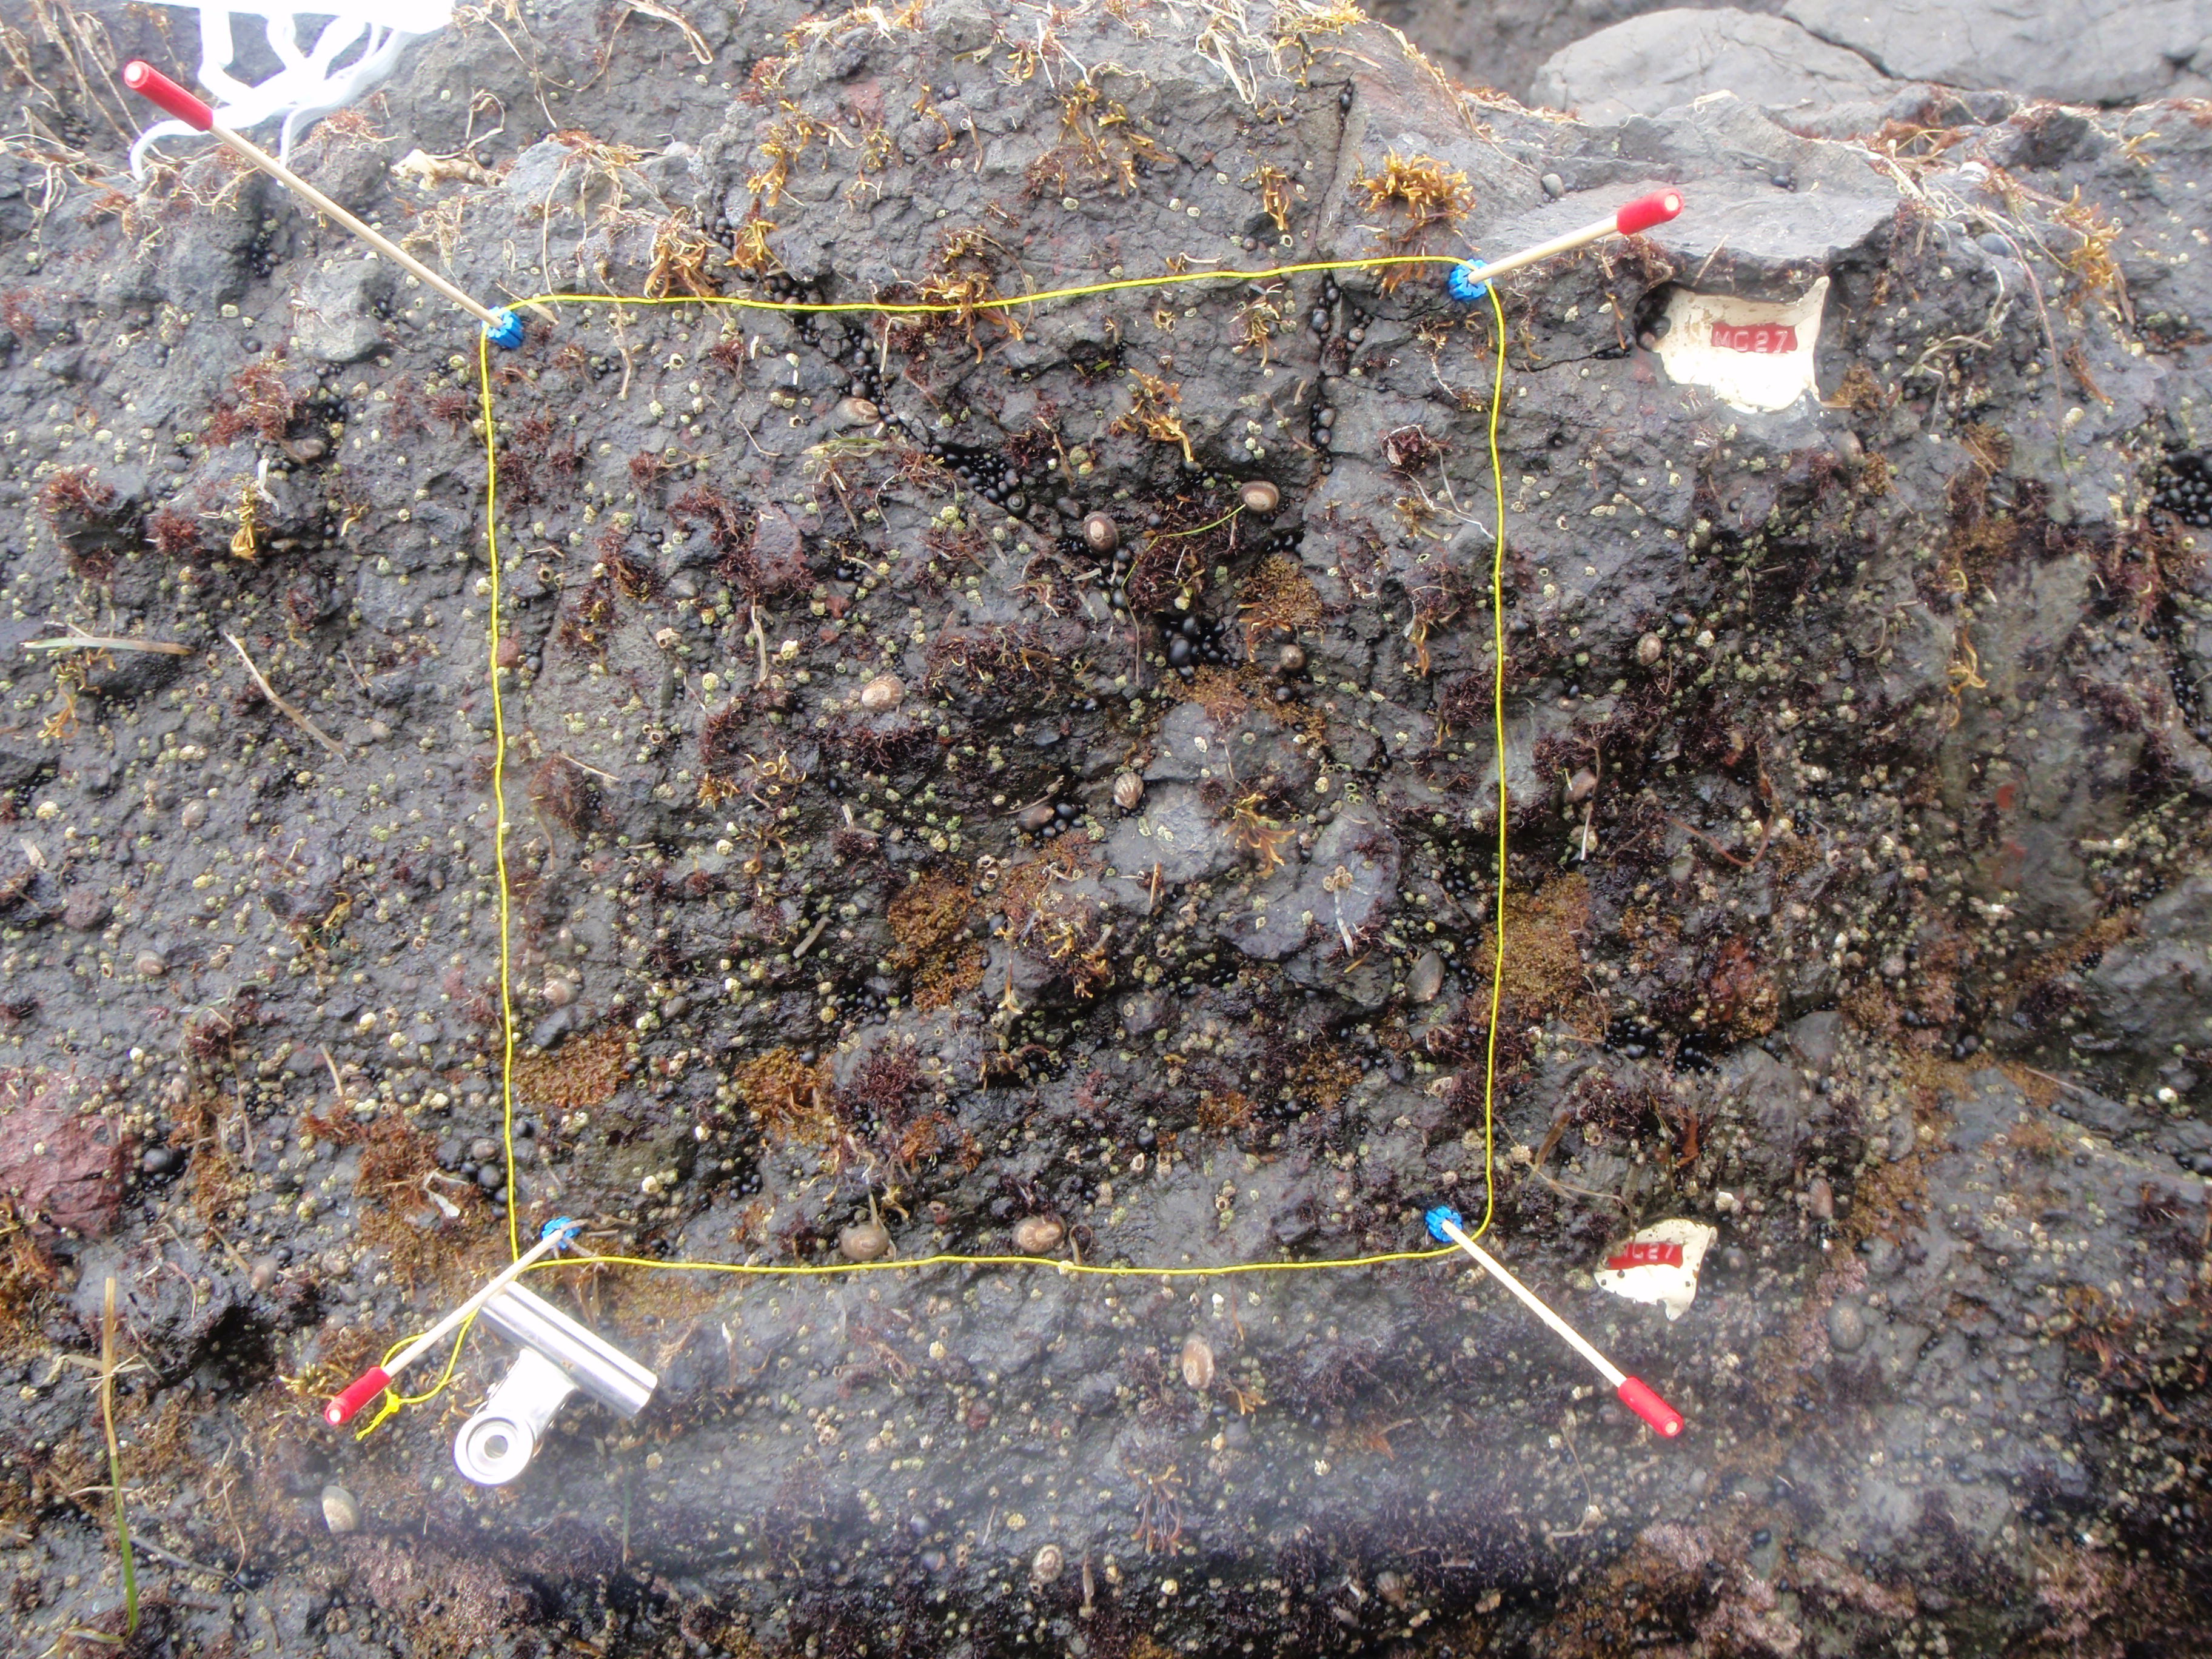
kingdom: Chromista
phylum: Ochrophyta
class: Phaeophyceae
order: Scytosiphonales
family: Scytosiphonaceae
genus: Analipus
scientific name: Analipus japonicus
